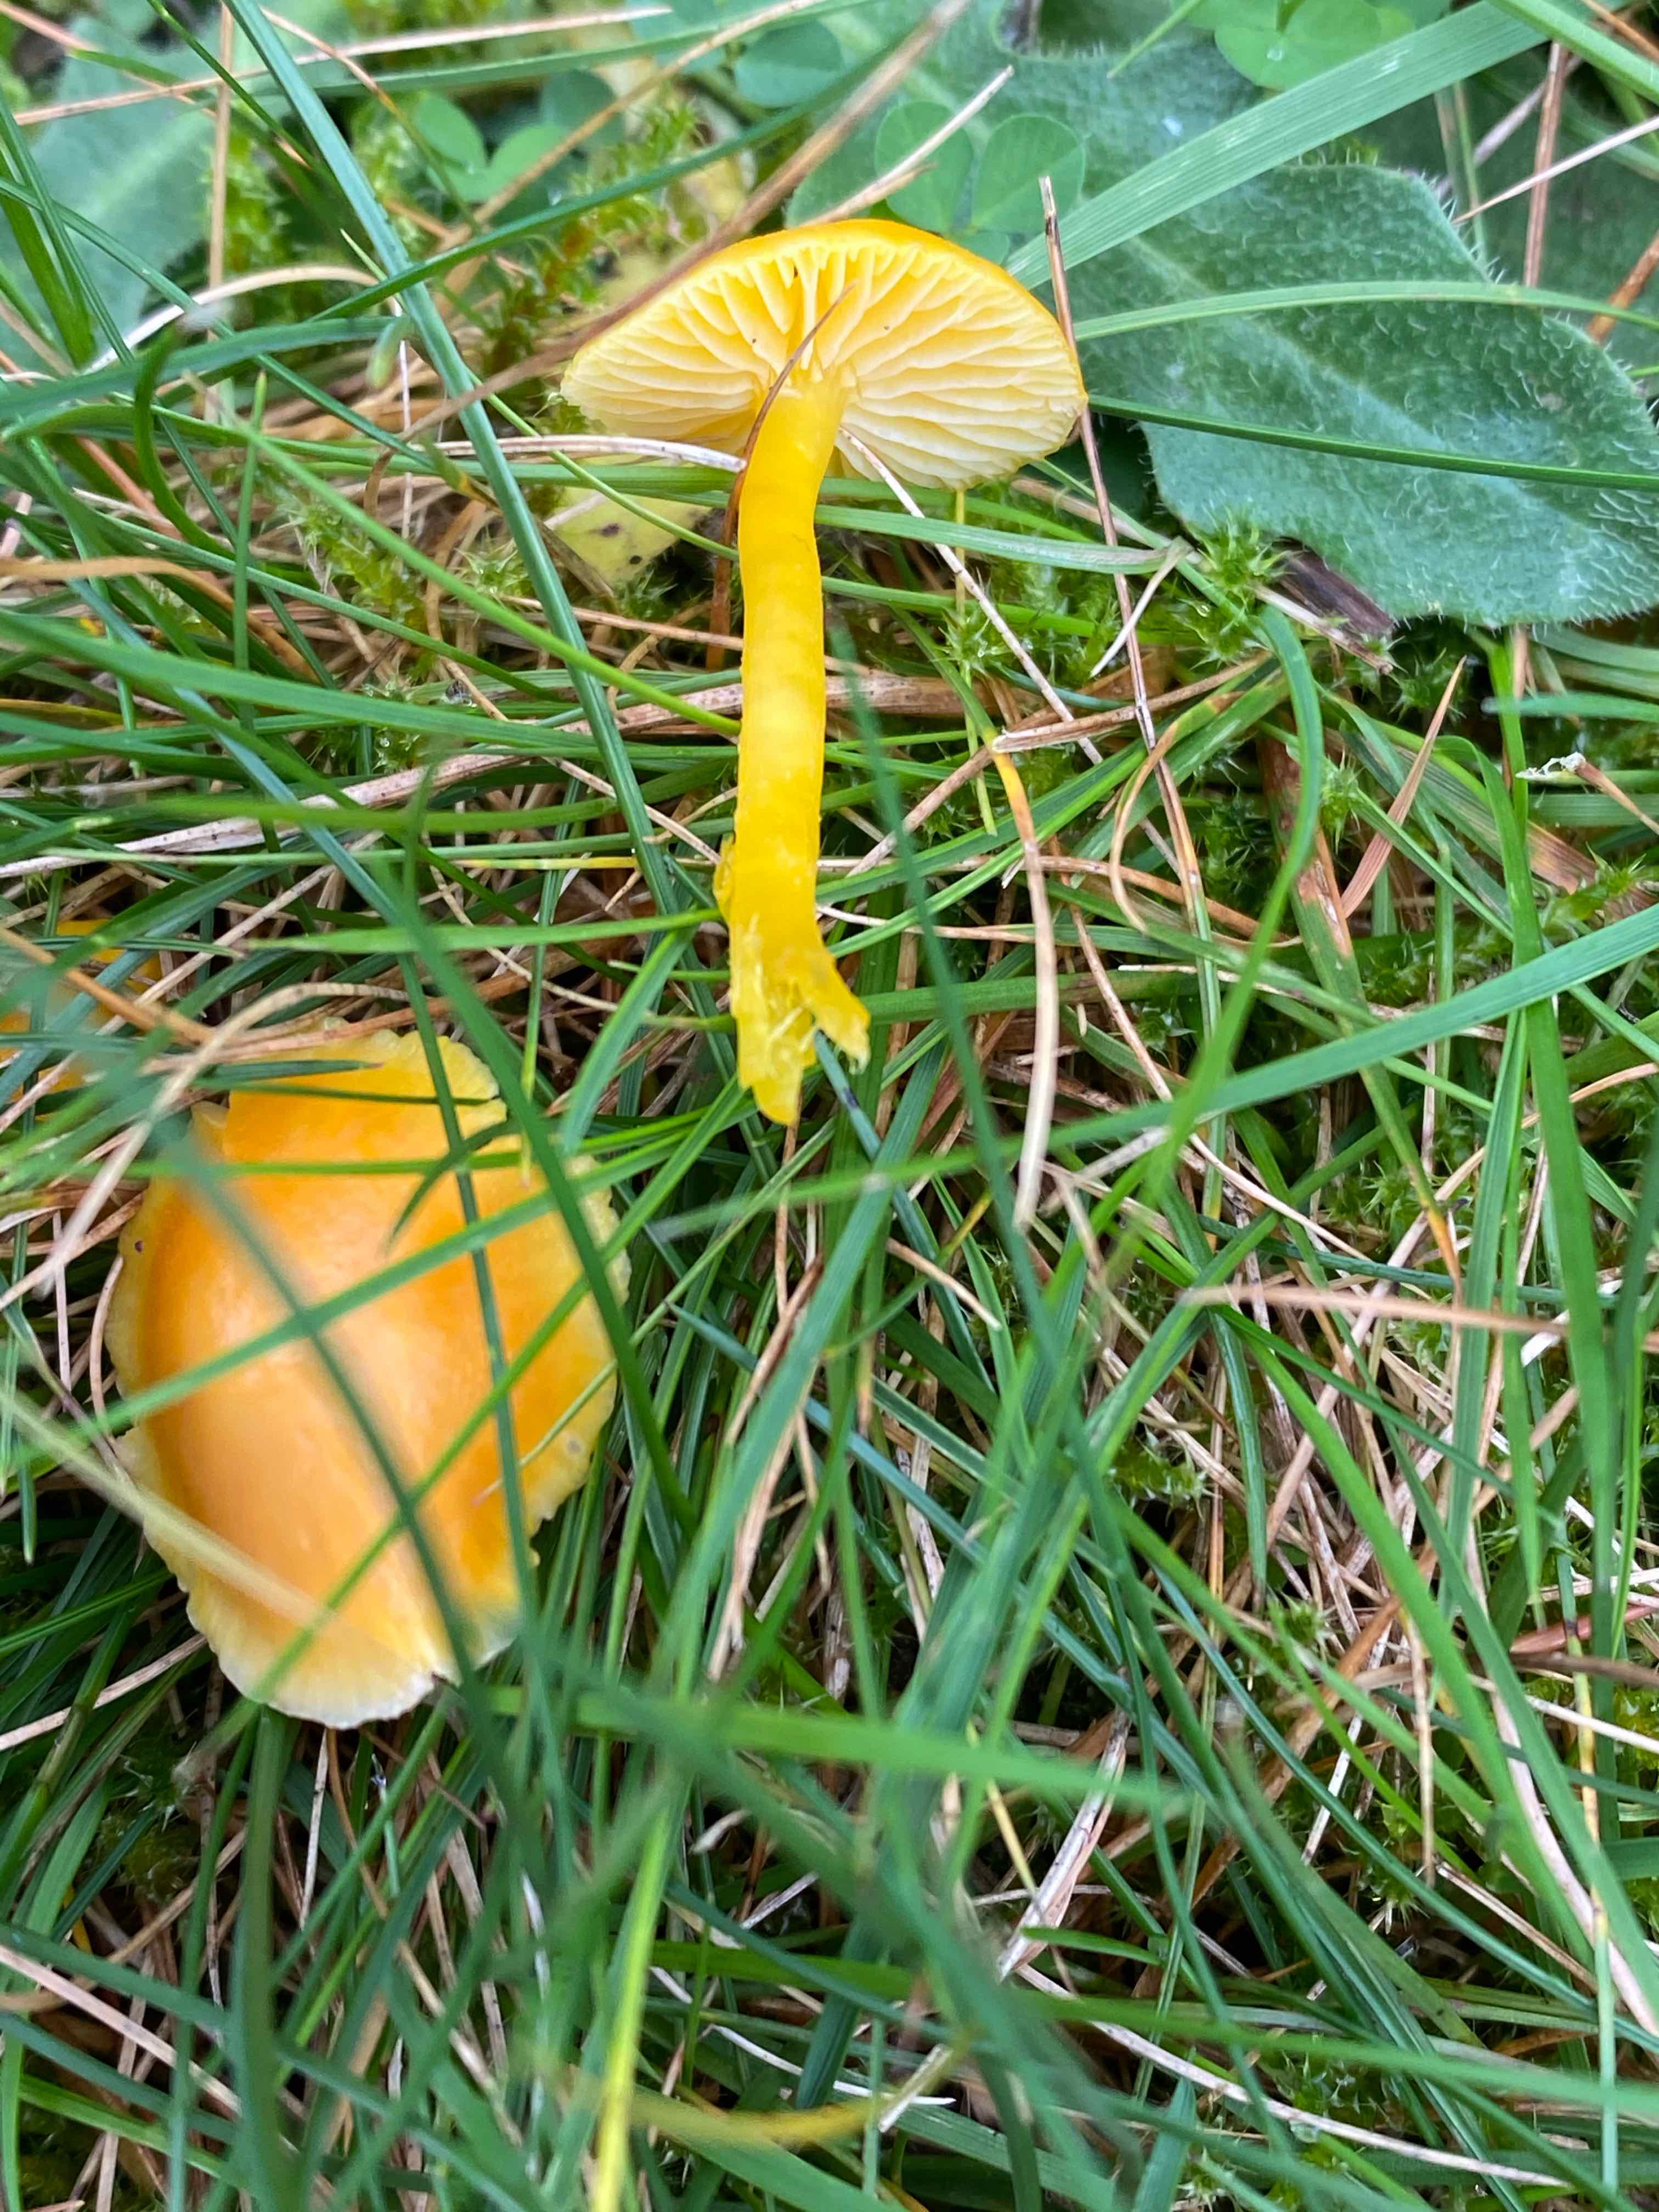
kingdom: Fungi
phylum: Basidiomycota
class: Agaricomycetes
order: Agaricales
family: Hygrophoraceae
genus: Hygrocybe
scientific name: Hygrocybe ceracea
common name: voksgul vokshat
